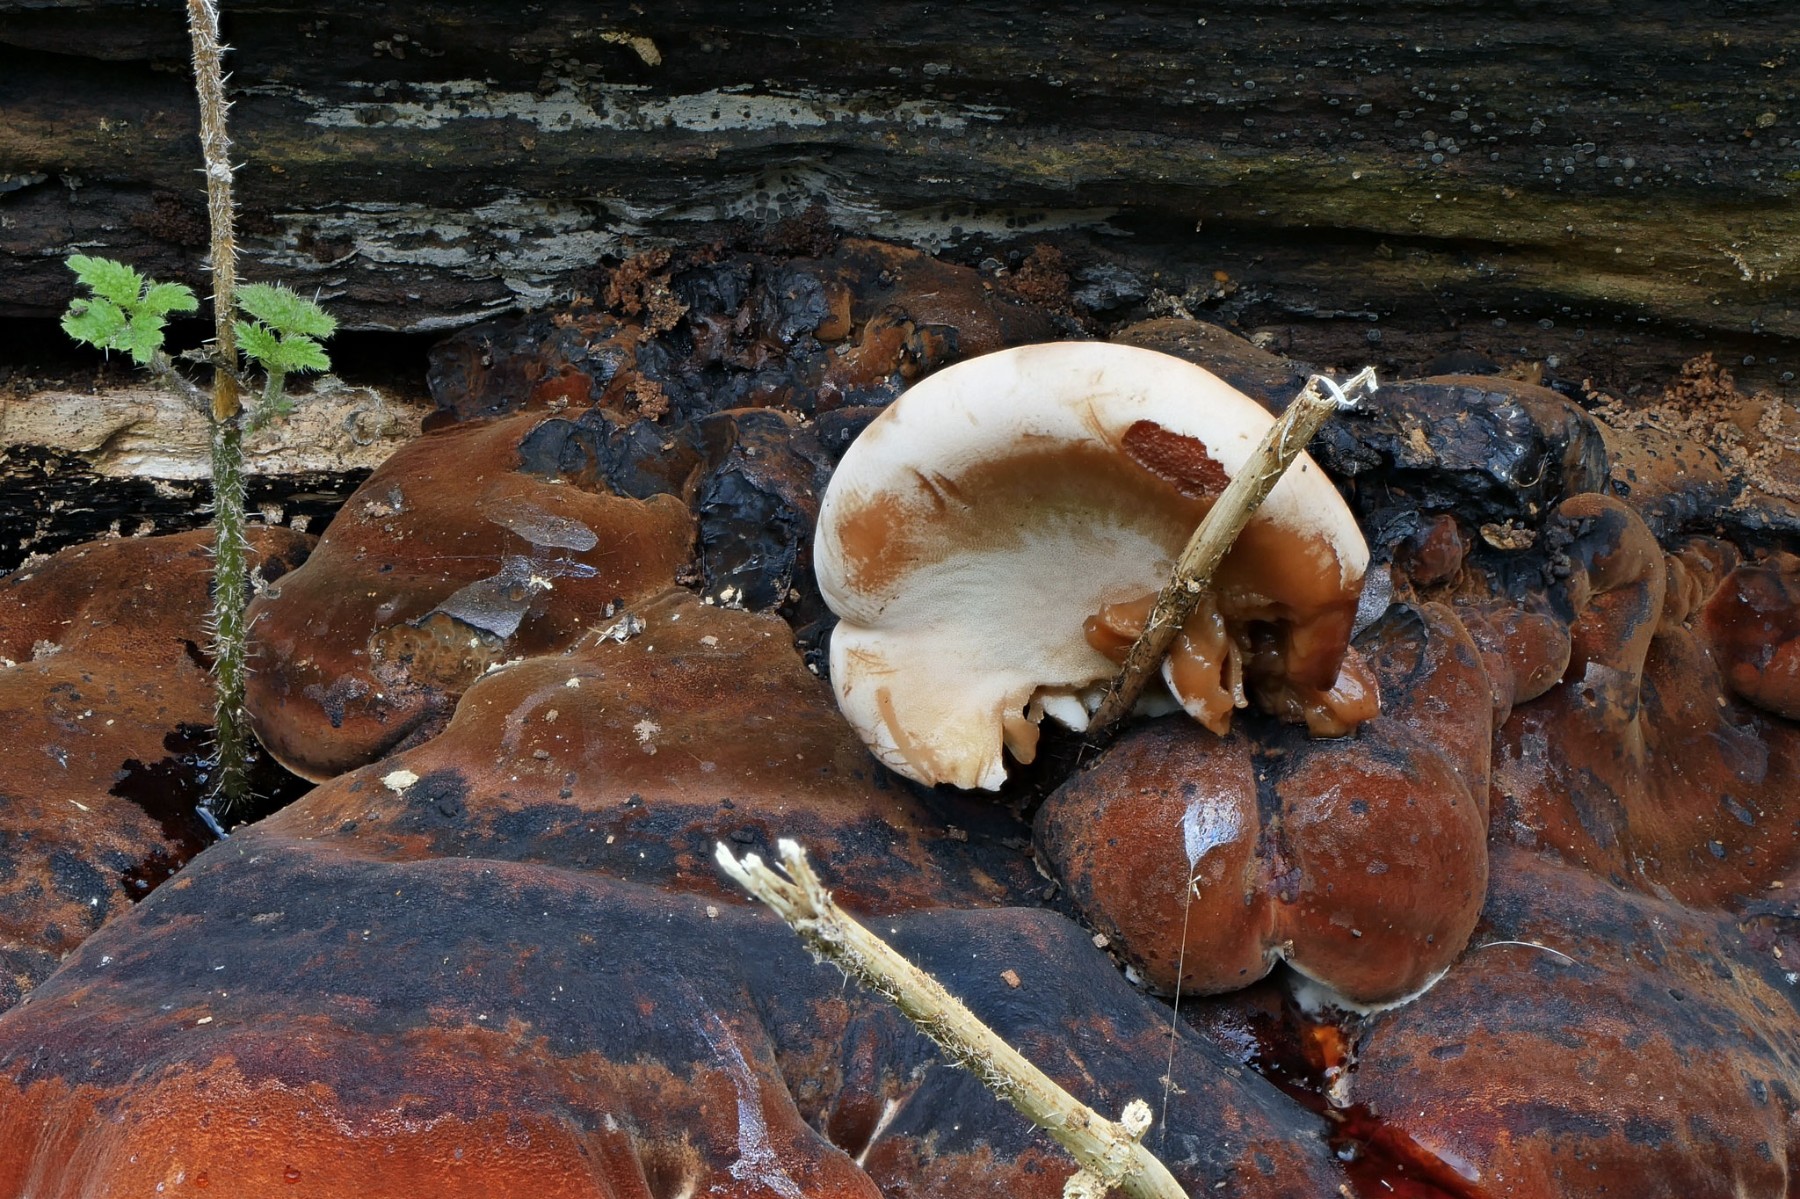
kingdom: Fungi
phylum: Basidiomycota
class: Agaricomycetes
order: Polyporales
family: Ischnodermataceae
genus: Ischnoderma
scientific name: Ischnoderma resinosum
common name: løv-tjæreporesvamp
